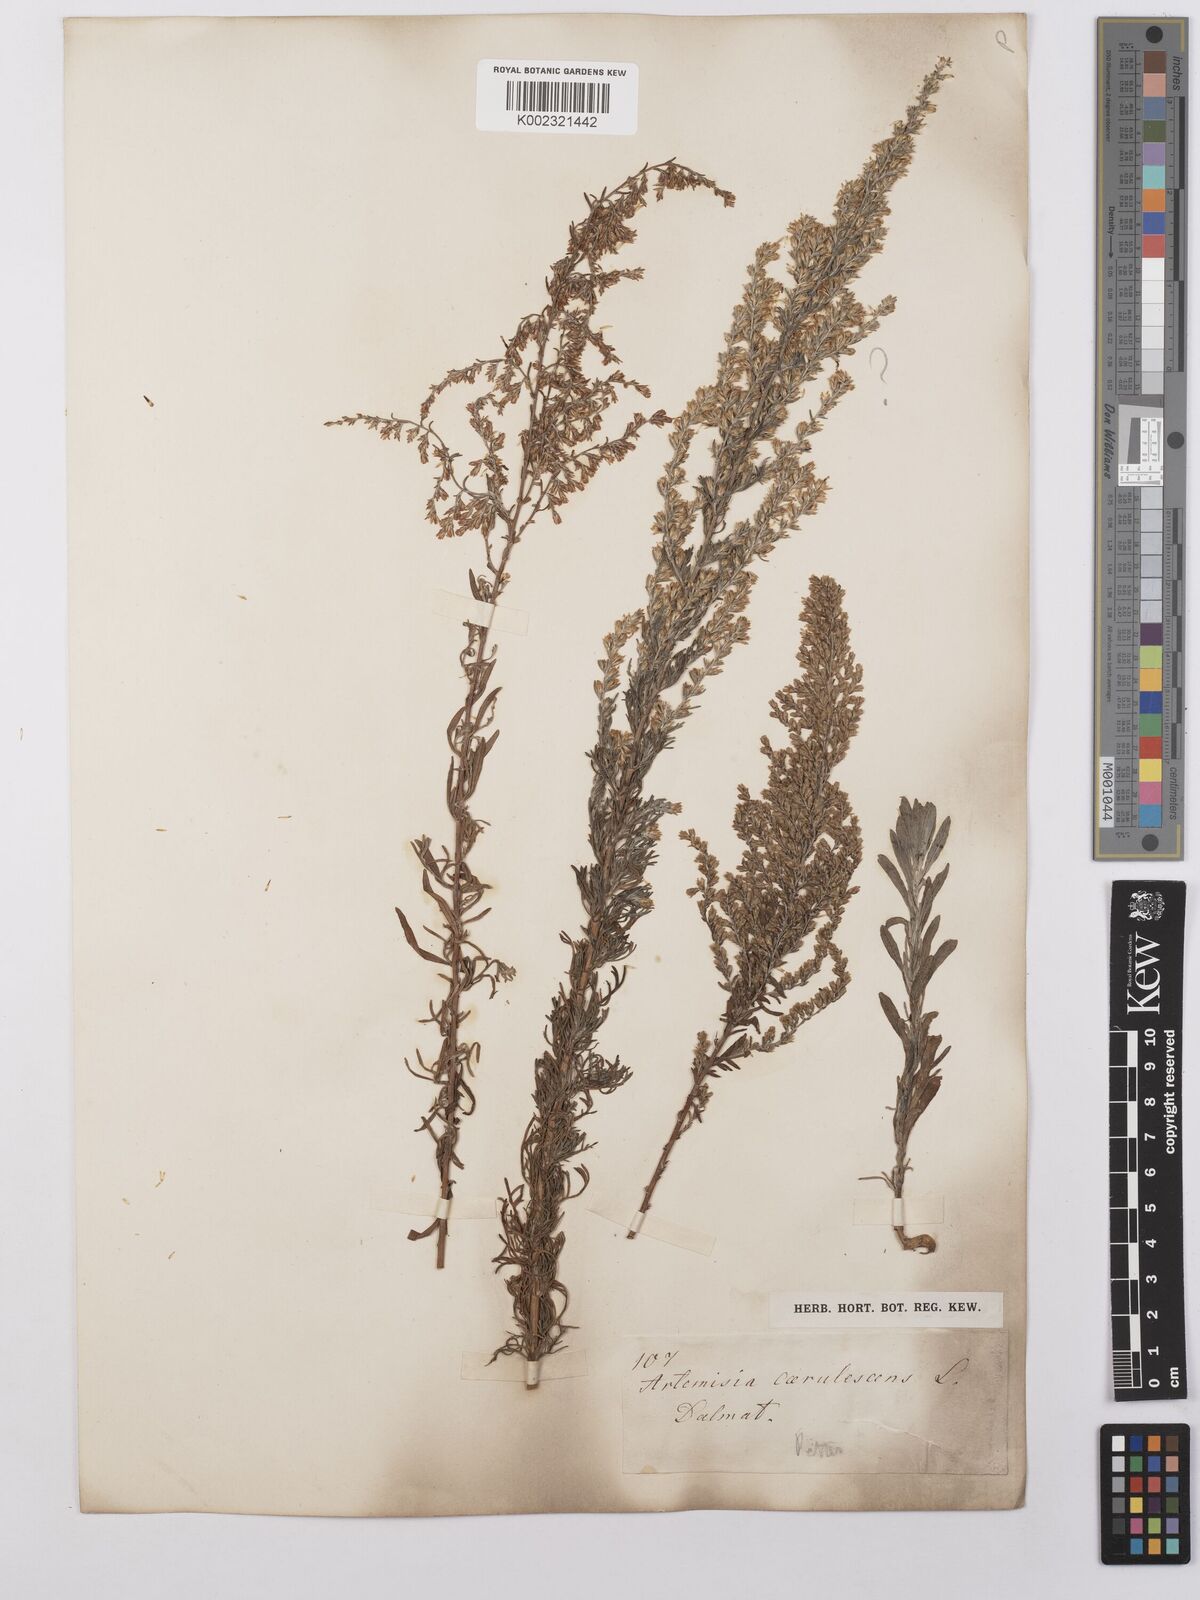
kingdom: Plantae
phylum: Tracheophyta
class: Magnoliopsida
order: Asterales
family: Asteraceae
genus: Artemisia
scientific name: Artemisia caerulescens
